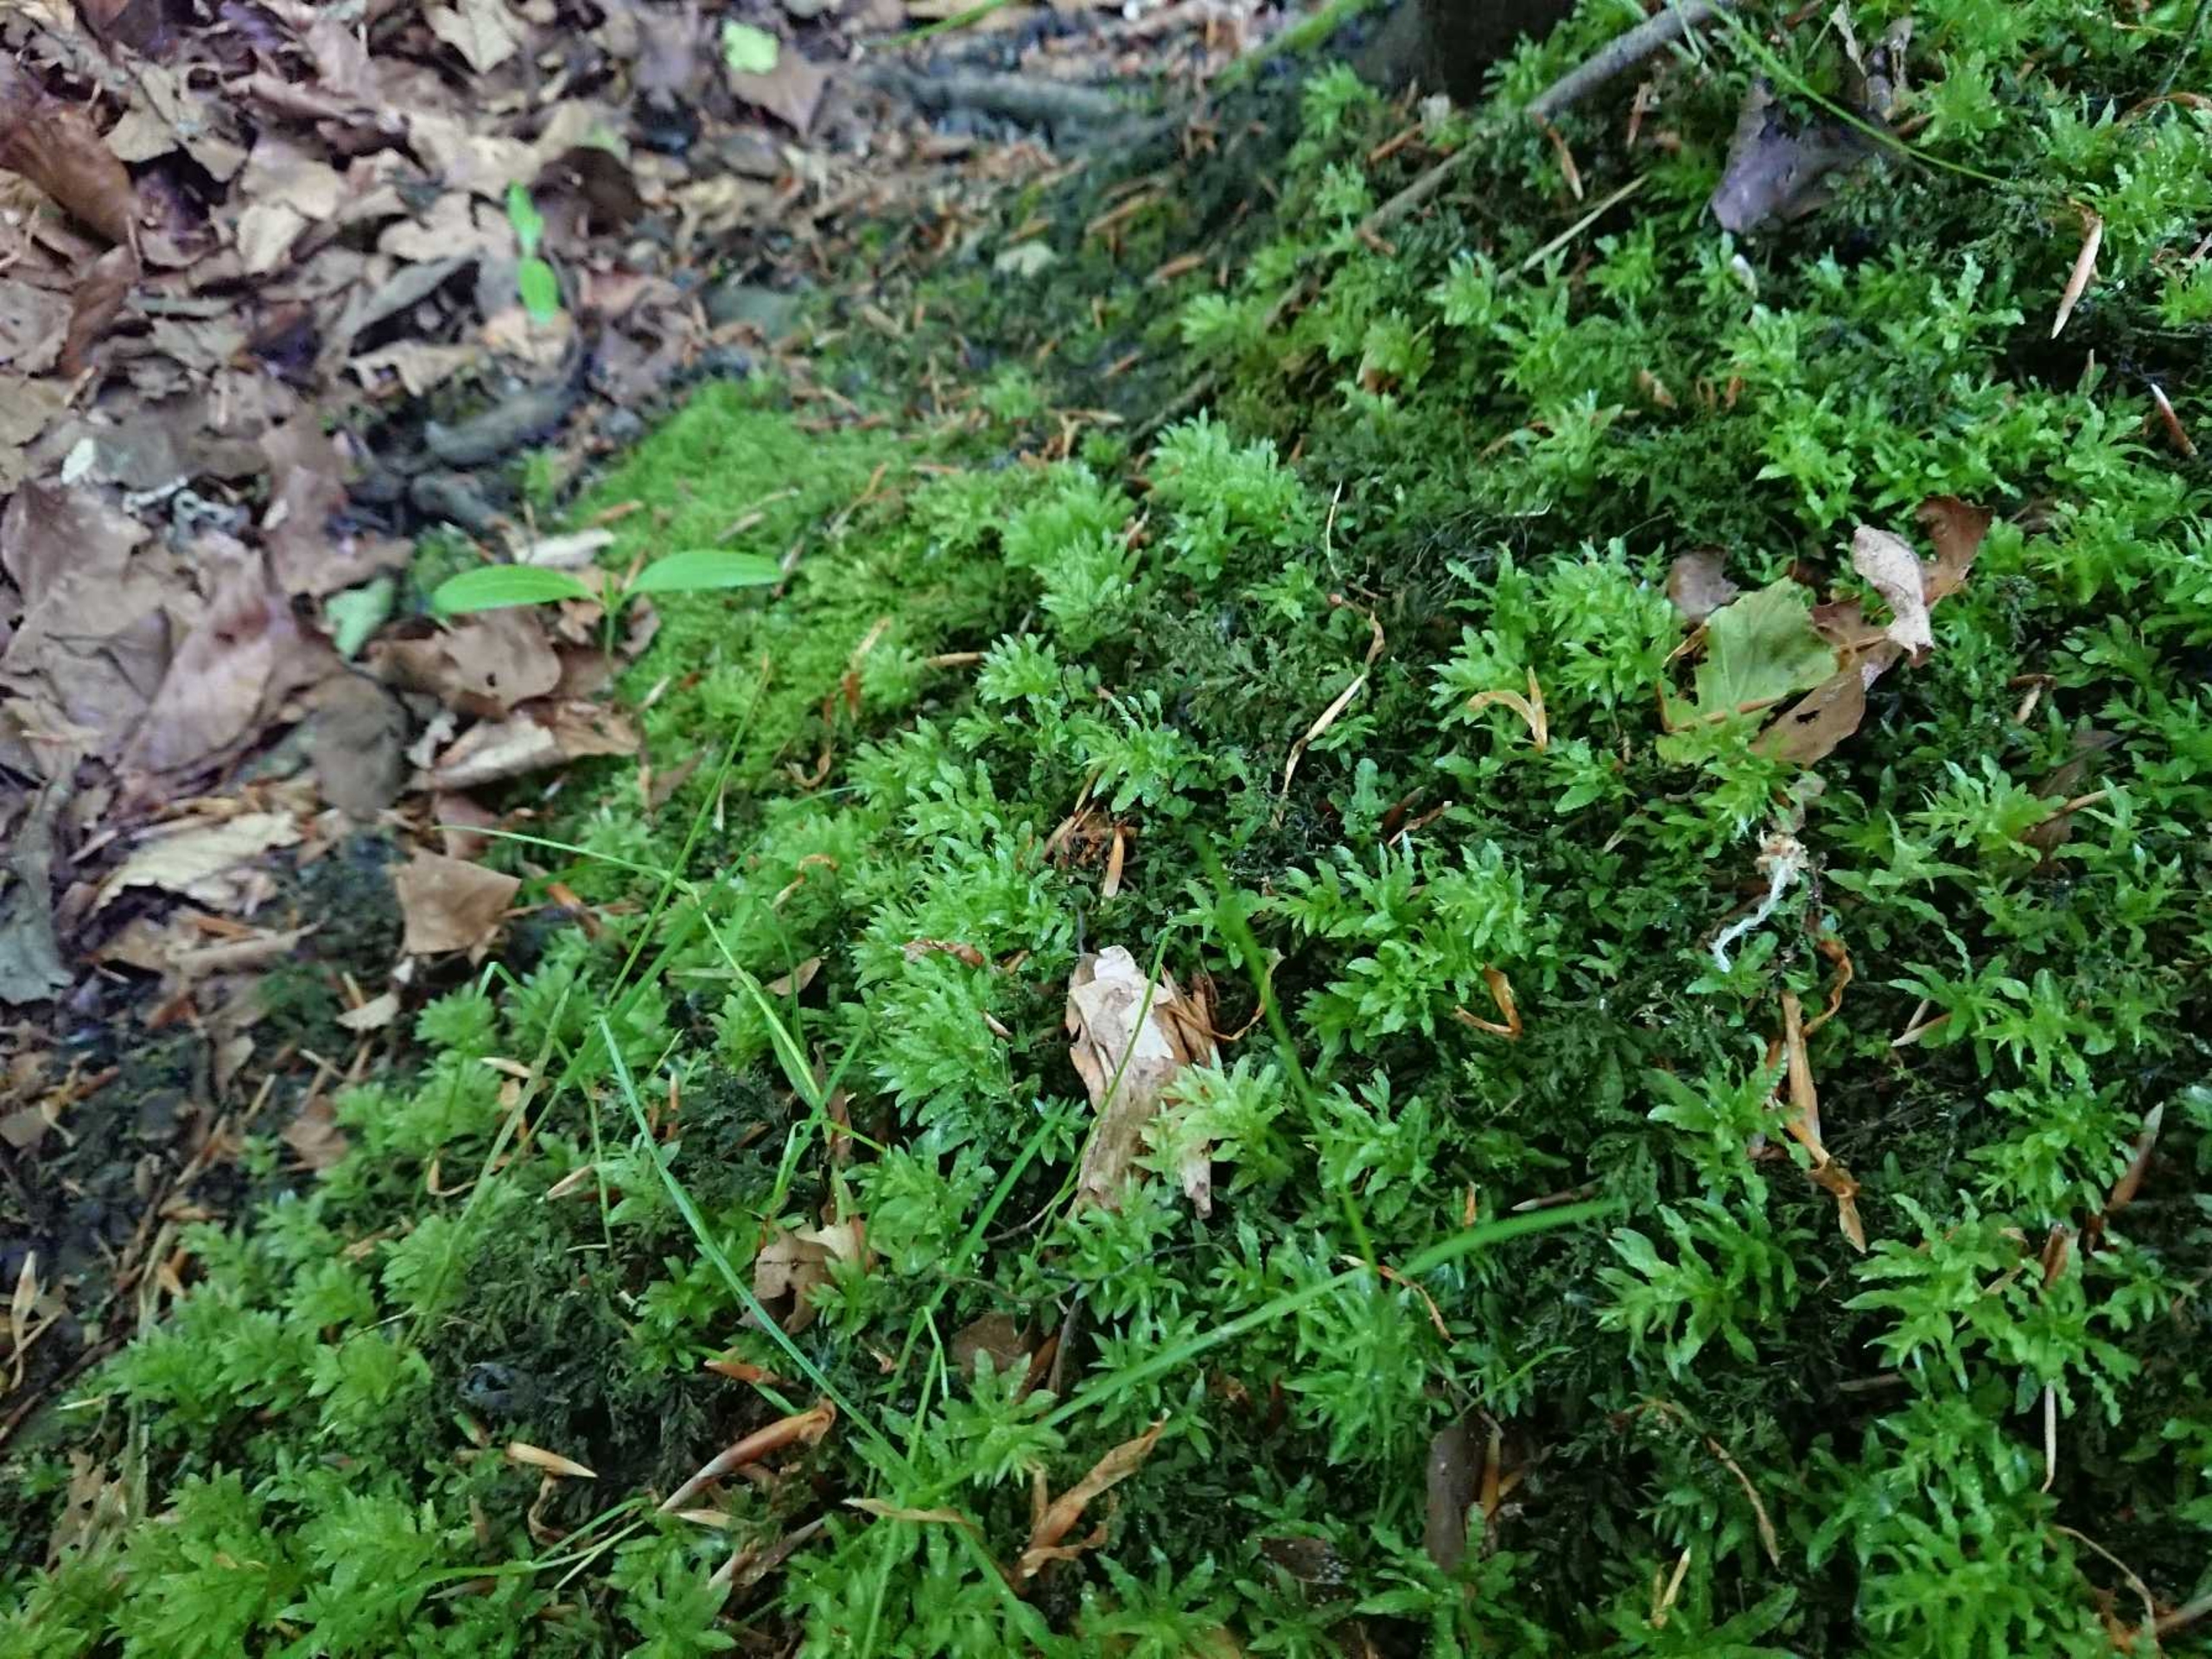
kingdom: Plantae
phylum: Bryophyta
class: Bryopsida
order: Bryales
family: Mniaceae
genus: Plagiomnium
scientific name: Plagiomnium undulatum
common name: Bølget krybstjerne
